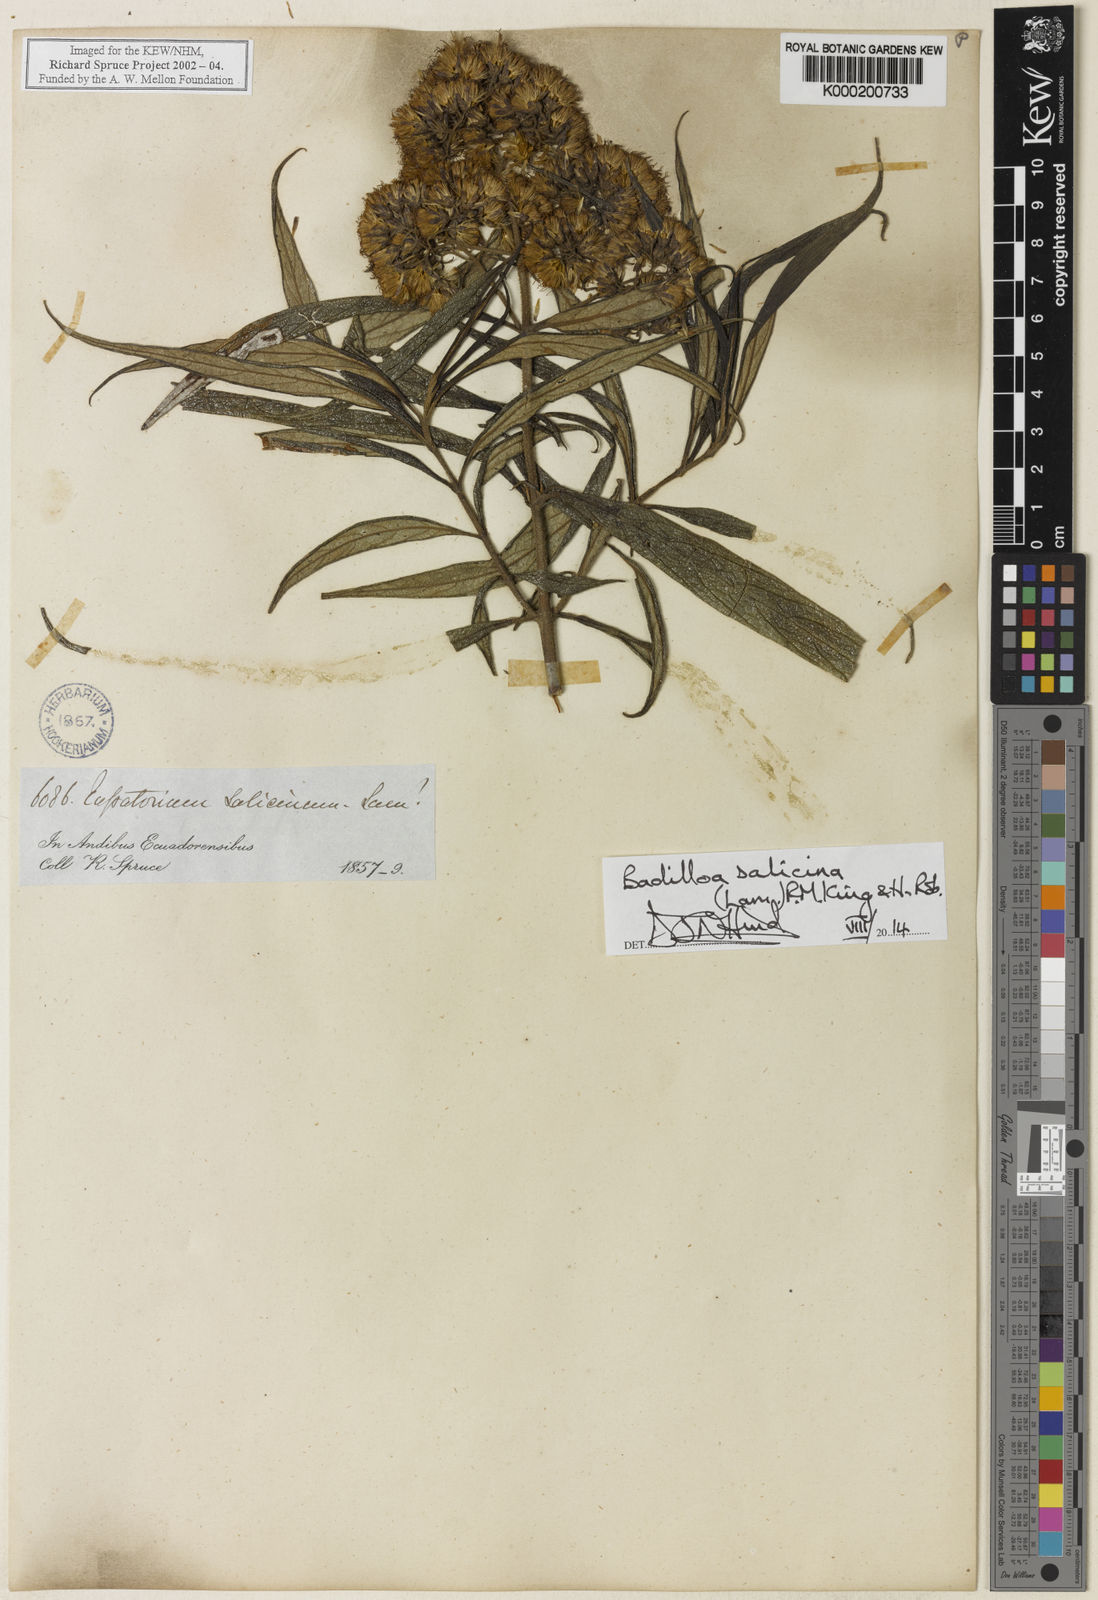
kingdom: Plantae
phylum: Tracheophyta
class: Magnoliopsida
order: Asterales
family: Asteraceae
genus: Badilloa
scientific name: Badilloa salicina
